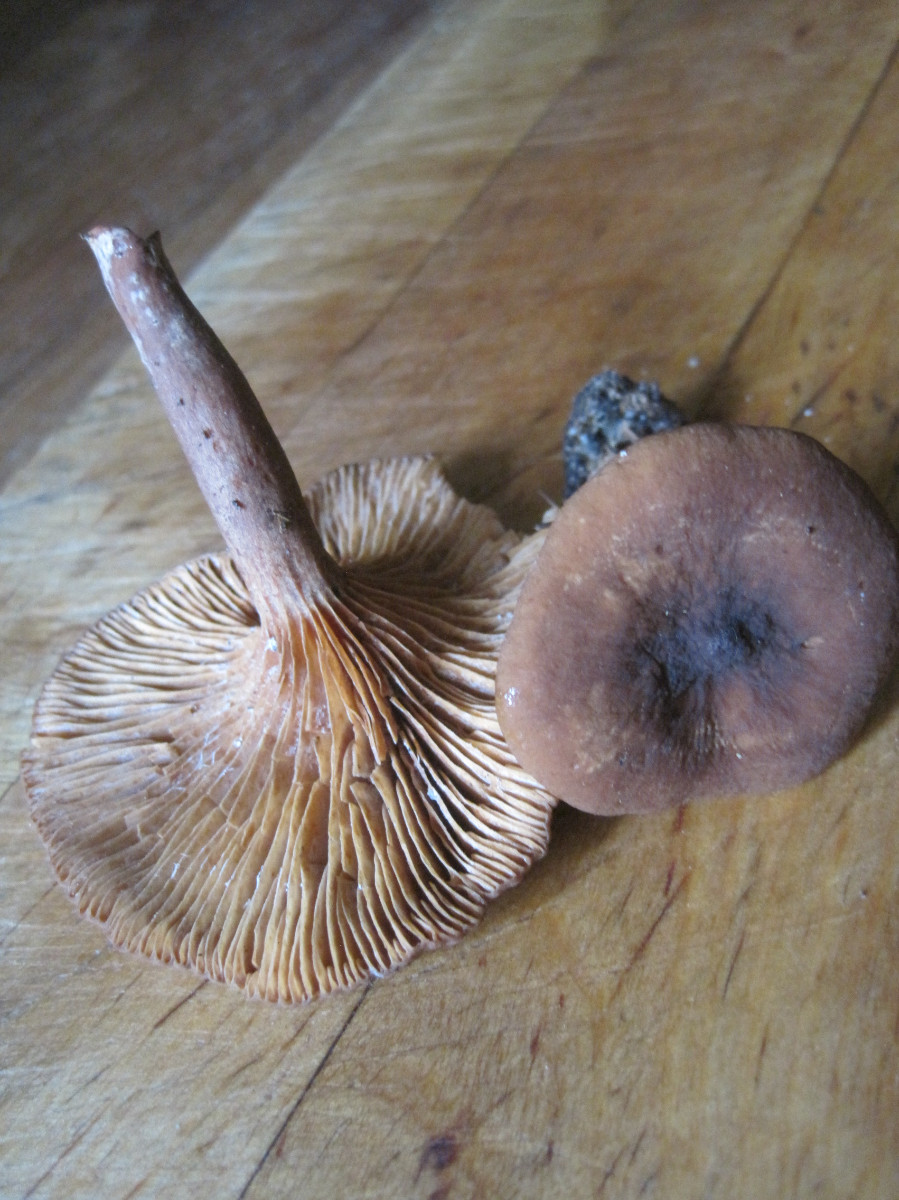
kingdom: Fungi
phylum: Basidiomycota
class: Agaricomycetes
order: Russulales
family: Russulaceae
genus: Lactarius
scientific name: Lactarius serifluus
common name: tæge-mælkehat
